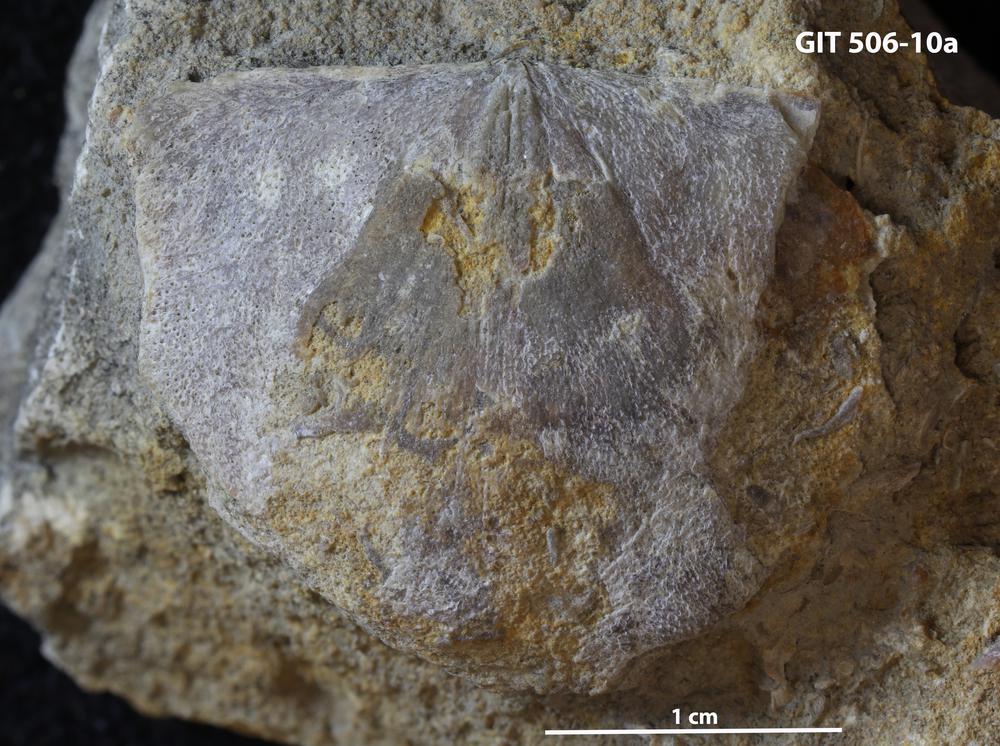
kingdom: Animalia
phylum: Brachiopoda
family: Stropheodontidae
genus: Strophodonta
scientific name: Strophodonta Brachyprion semiglobosa
